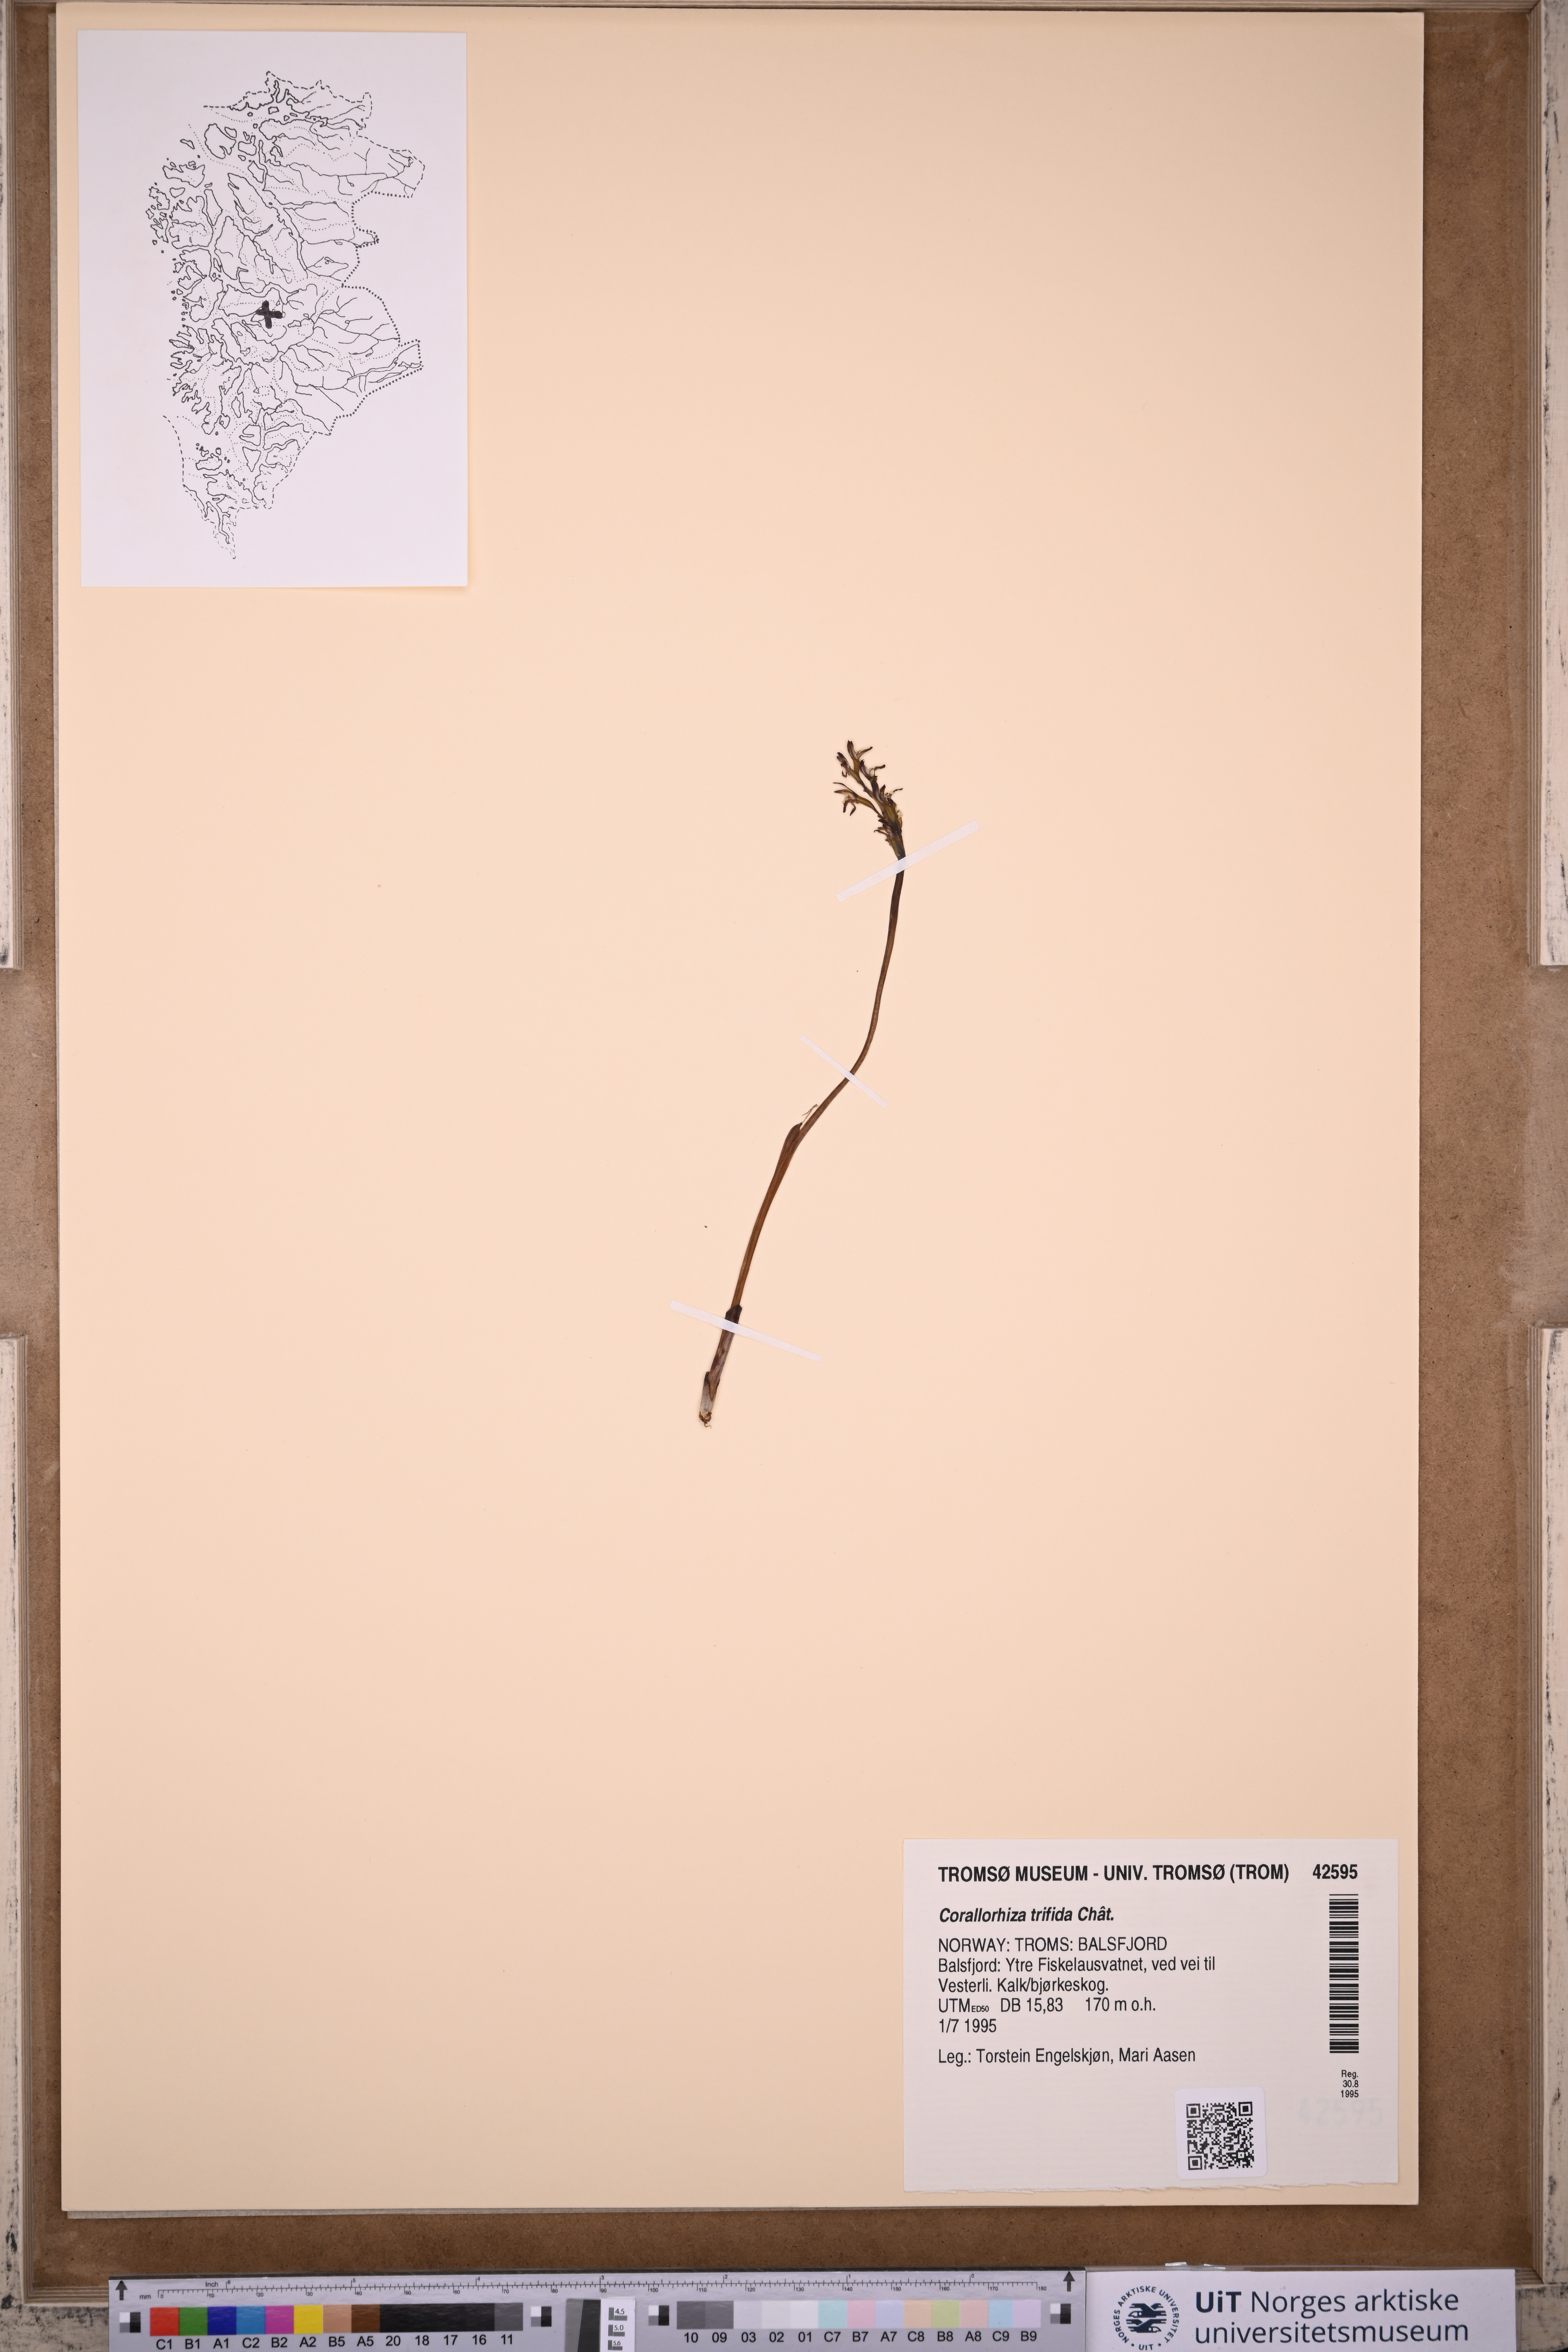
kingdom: Plantae
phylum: Tracheophyta
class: Liliopsida
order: Asparagales
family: Orchidaceae
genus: Corallorhiza
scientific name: Corallorhiza trifida
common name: Yellow coralroot
